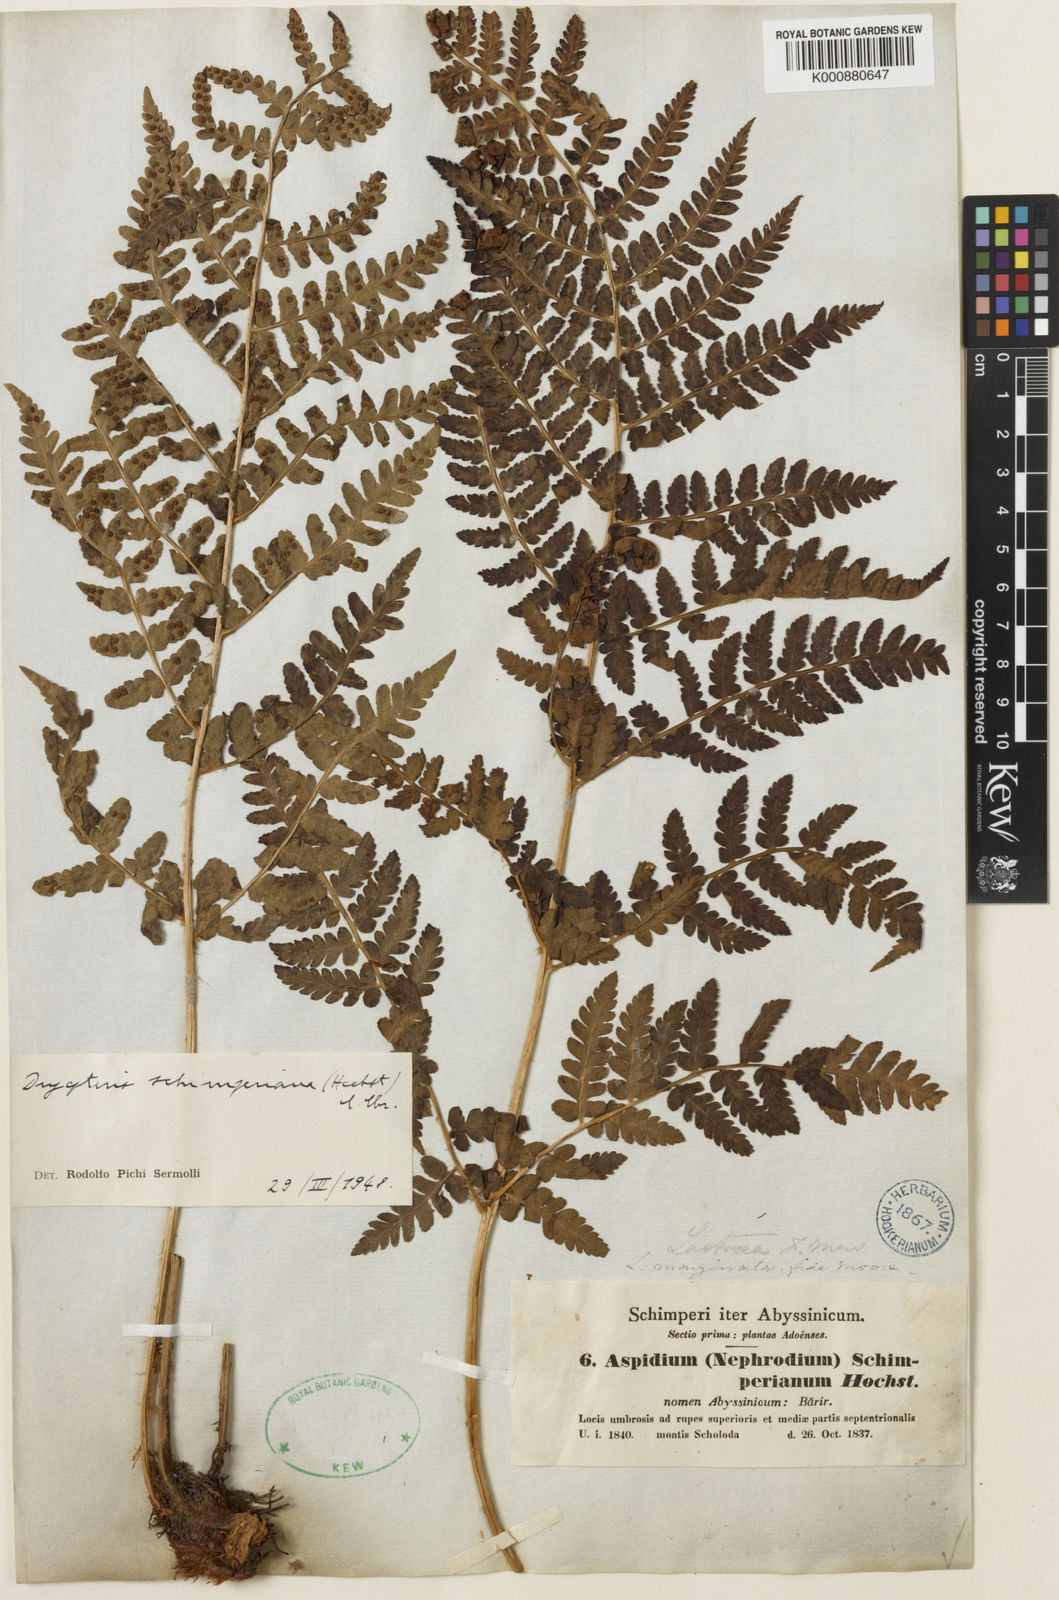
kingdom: Plantae
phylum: Tracheophyta
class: Polypodiopsida
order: Polypodiales
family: Dryopteridaceae
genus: Dryopteris
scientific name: Dryopteris schimperiana
